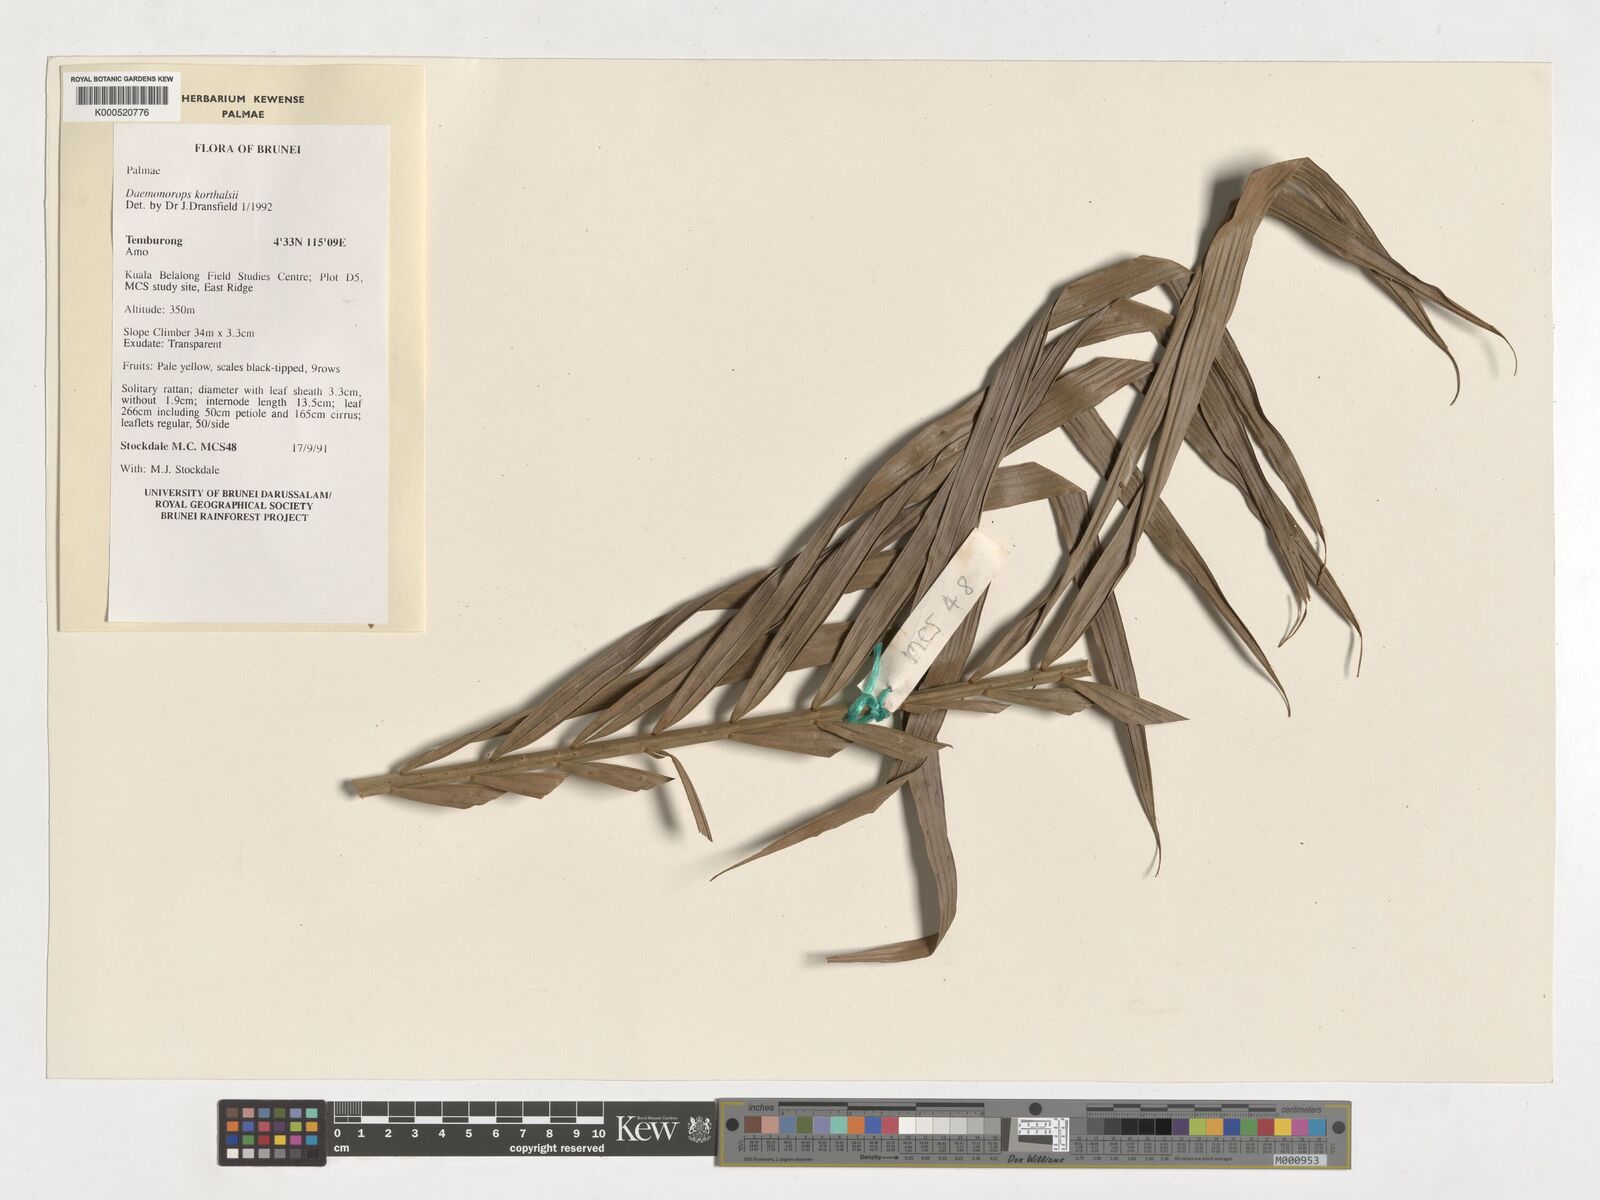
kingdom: Plantae
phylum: Tracheophyta
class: Liliopsida
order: Arecales
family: Arecaceae
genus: Calamus
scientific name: Calamus hirsutus
